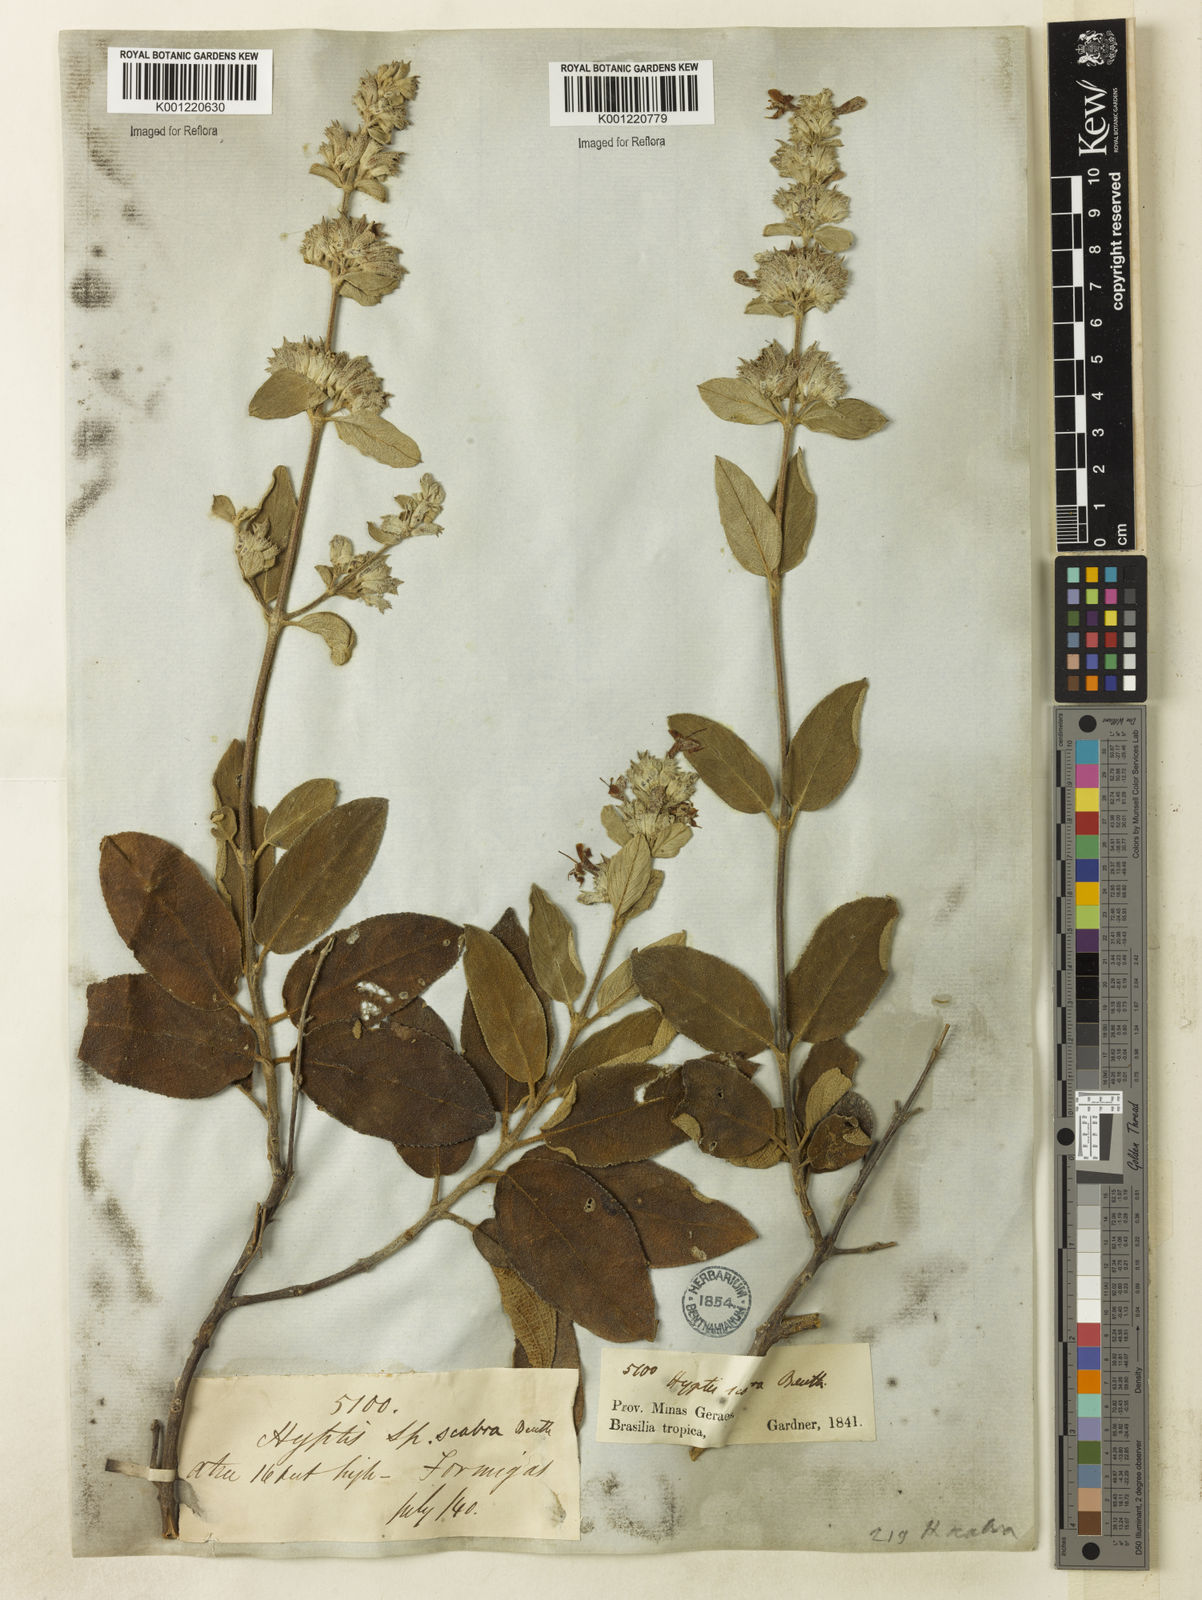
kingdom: Plantae
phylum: Tracheophyta
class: Magnoliopsida
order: Lamiales
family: Lamiaceae
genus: Hyptidendron
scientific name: Hyptidendron canum
